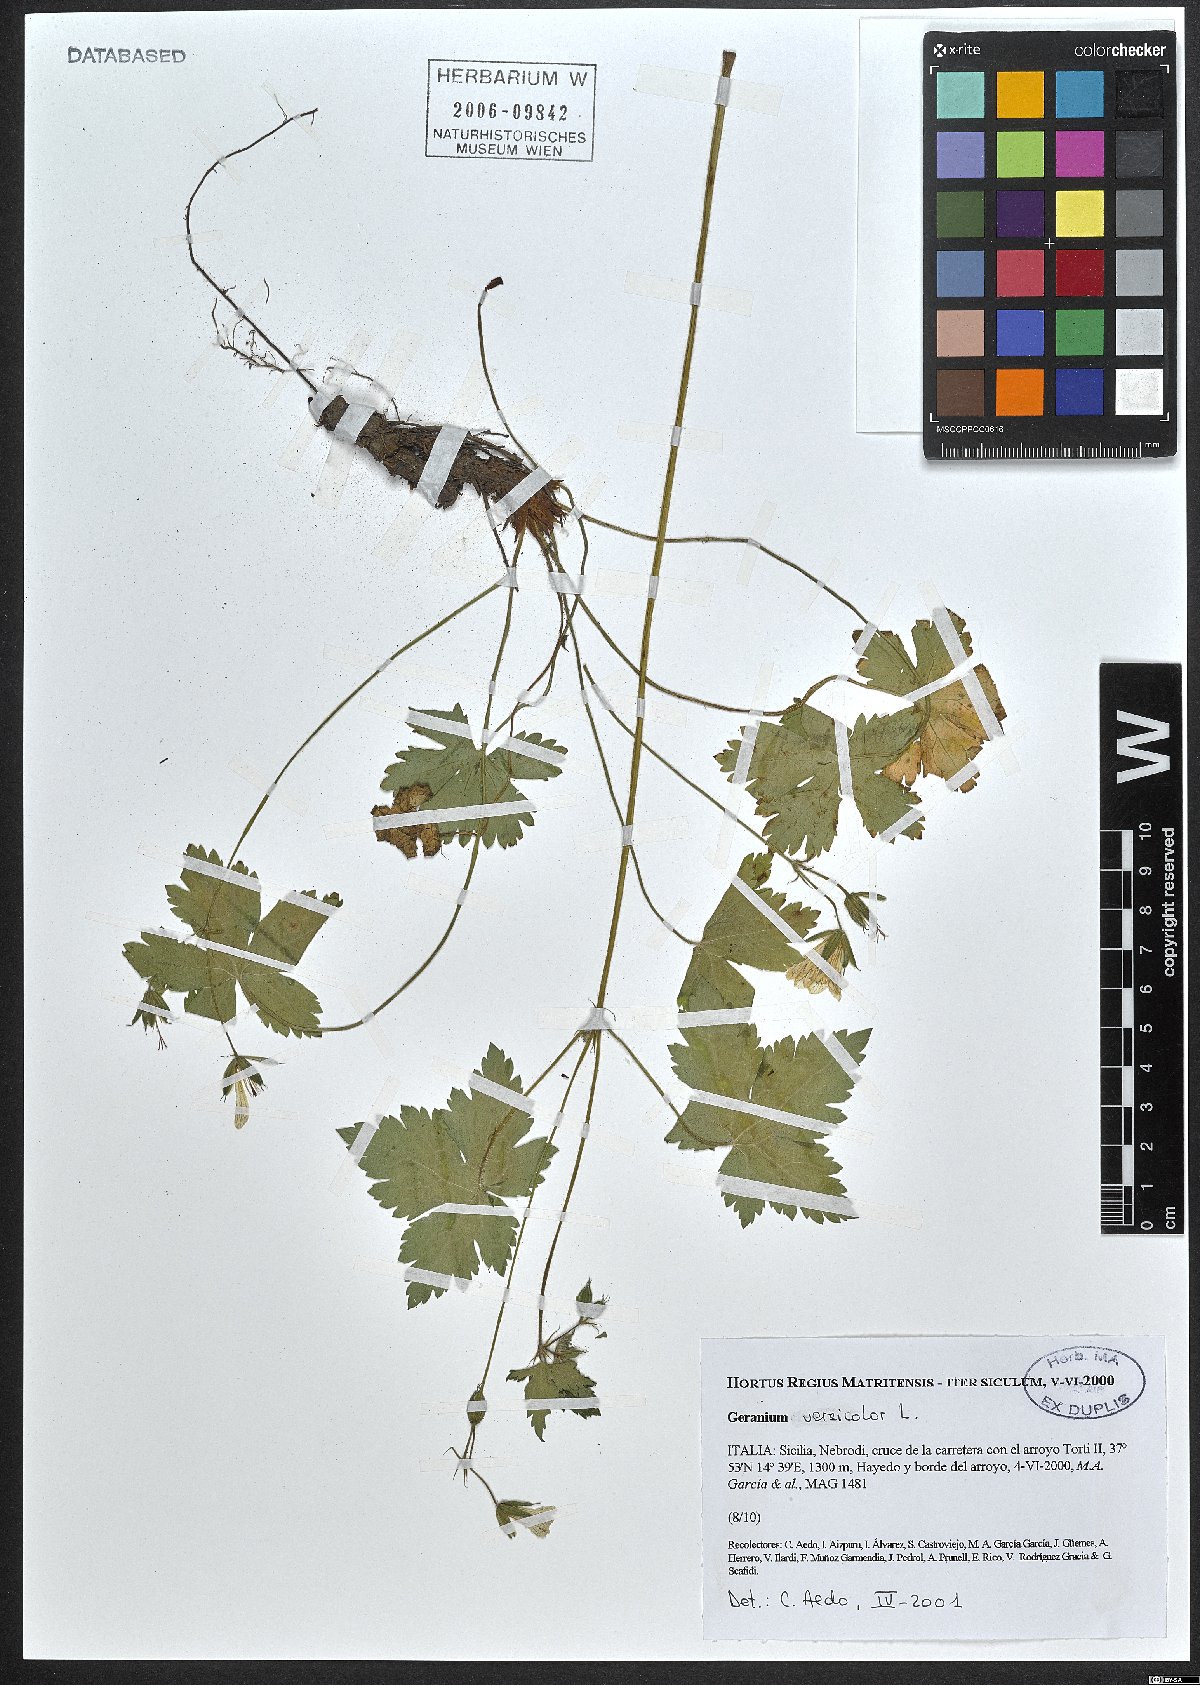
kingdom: Plantae
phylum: Tracheophyta
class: Magnoliopsida
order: Geraniales
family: Geraniaceae
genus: Geranium
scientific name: Geranium versicolor
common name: Pencilled crane's-bill
